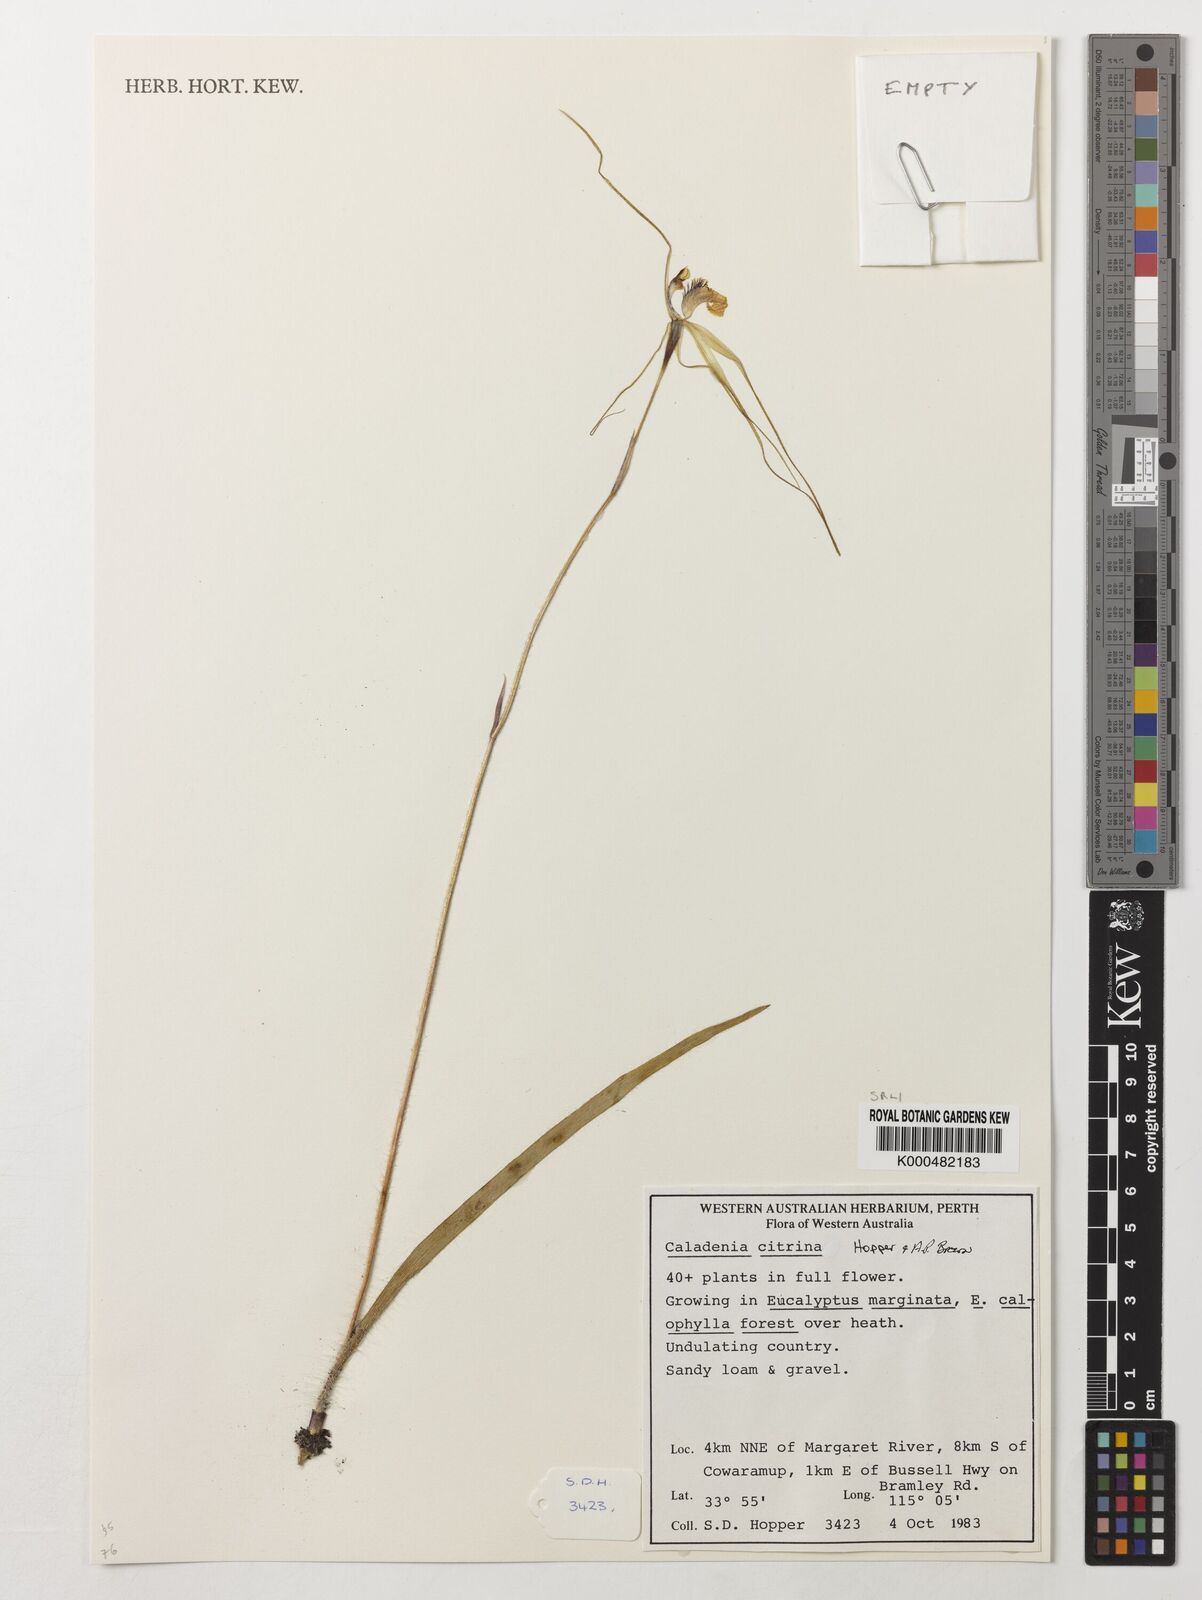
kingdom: Plantae
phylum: Tracheophyta
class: Liliopsida
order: Asparagales
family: Orchidaceae
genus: Caladenia
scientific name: Caladenia
